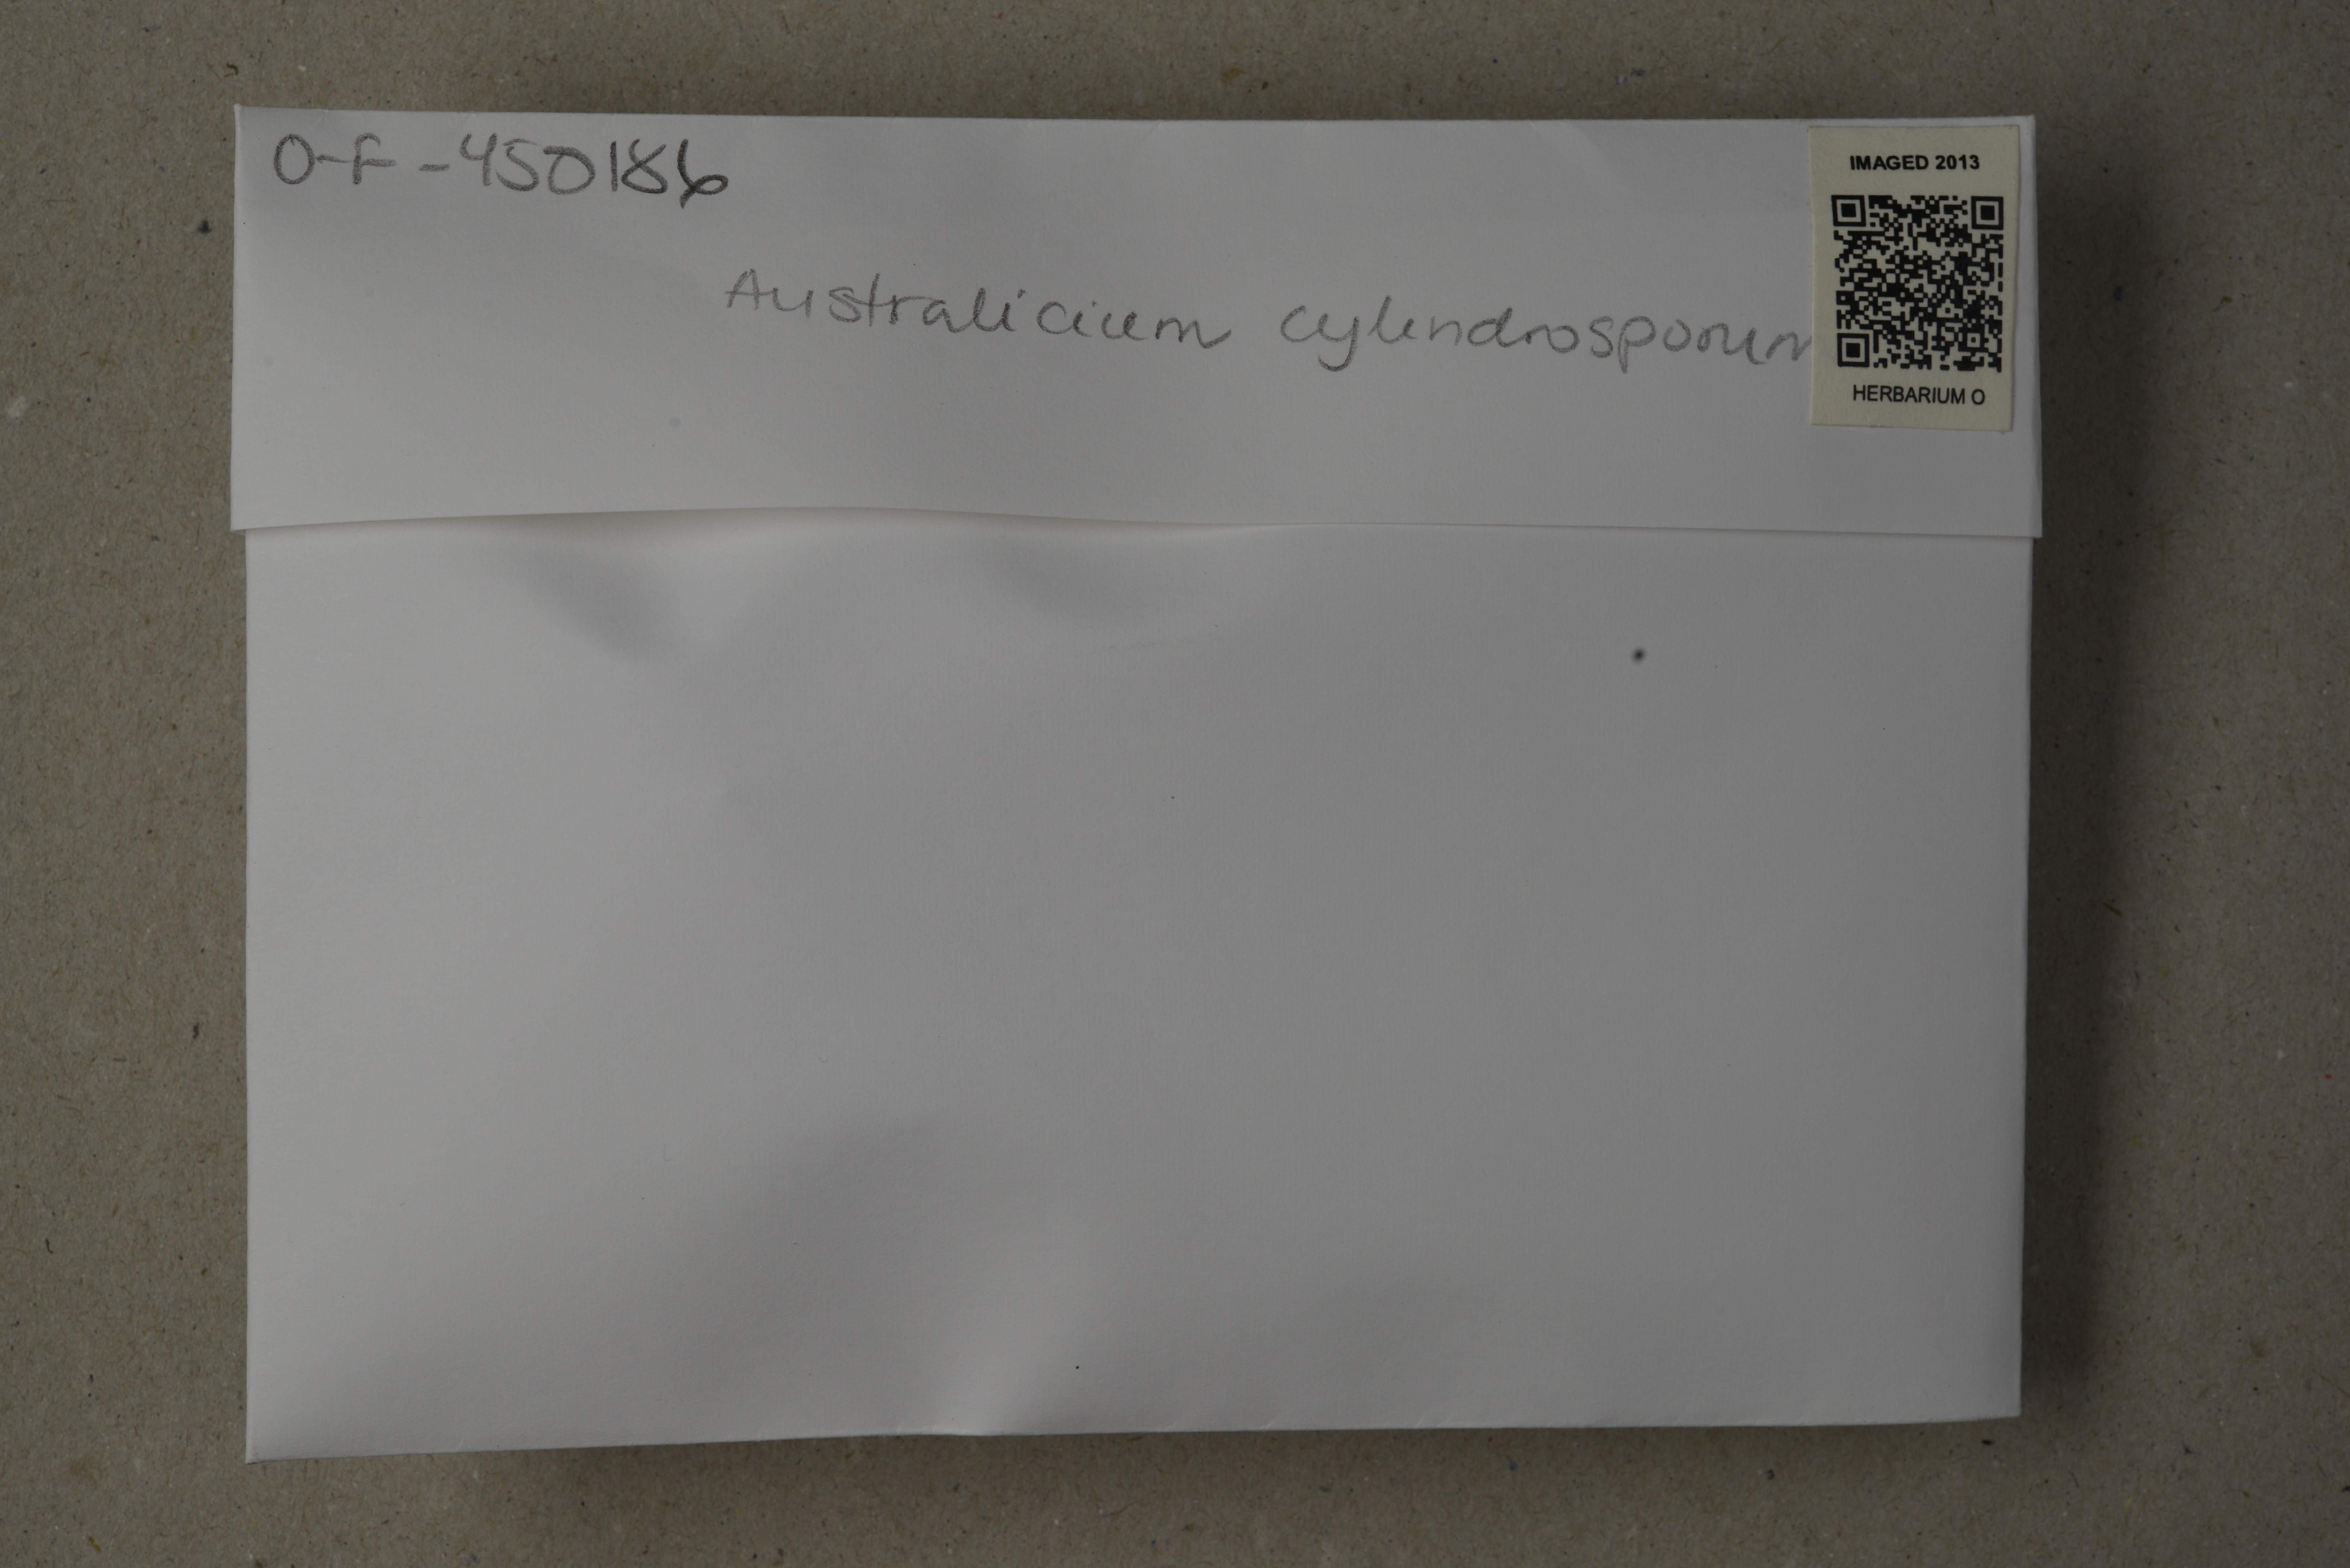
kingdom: Fungi
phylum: Basidiomycota
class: Agaricomycetes
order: Polyporales
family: Phanerochaetaceae
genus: Australicium
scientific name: Australicium cylindrosporum
